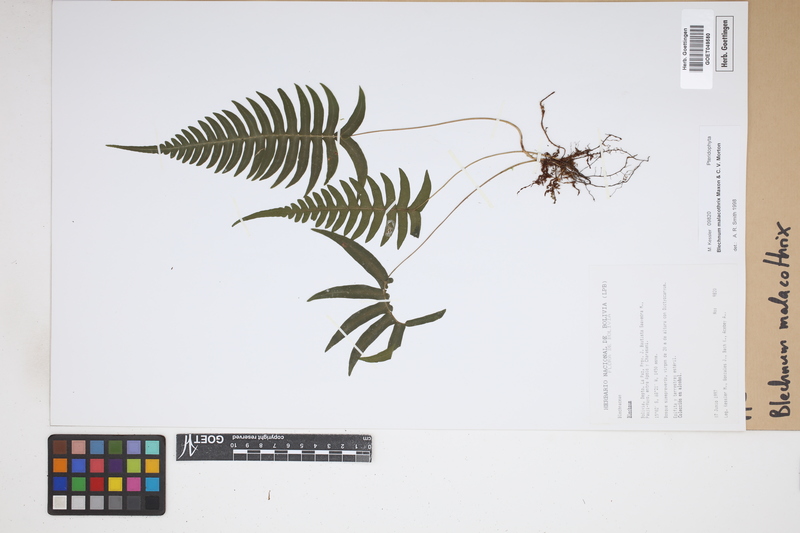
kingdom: Plantae
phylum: Tracheophyta
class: Polypodiopsida
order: Polypodiales
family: Blechnaceae
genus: Blechnum
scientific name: Blechnum malacothrix
